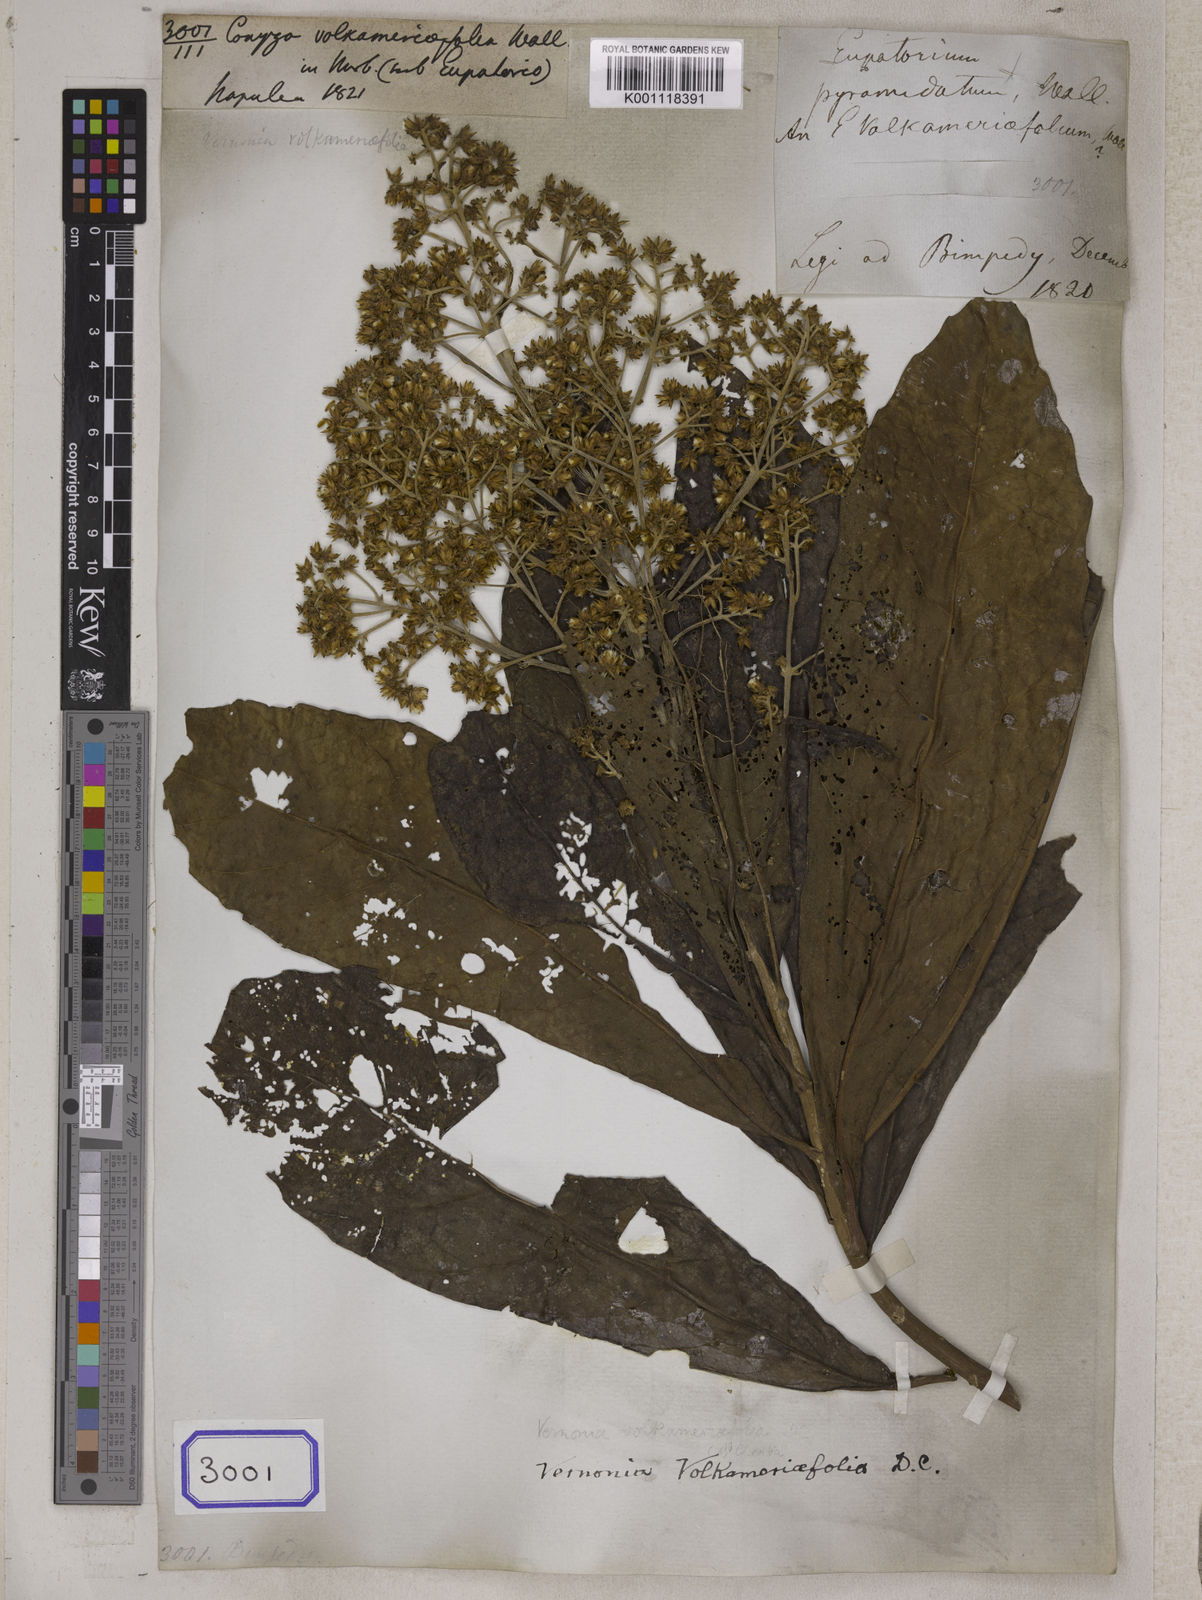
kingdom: Plantae
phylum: Tracheophyta
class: Magnoliopsida
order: Asterales
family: Asteraceae
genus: Conyza
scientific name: Conyza
